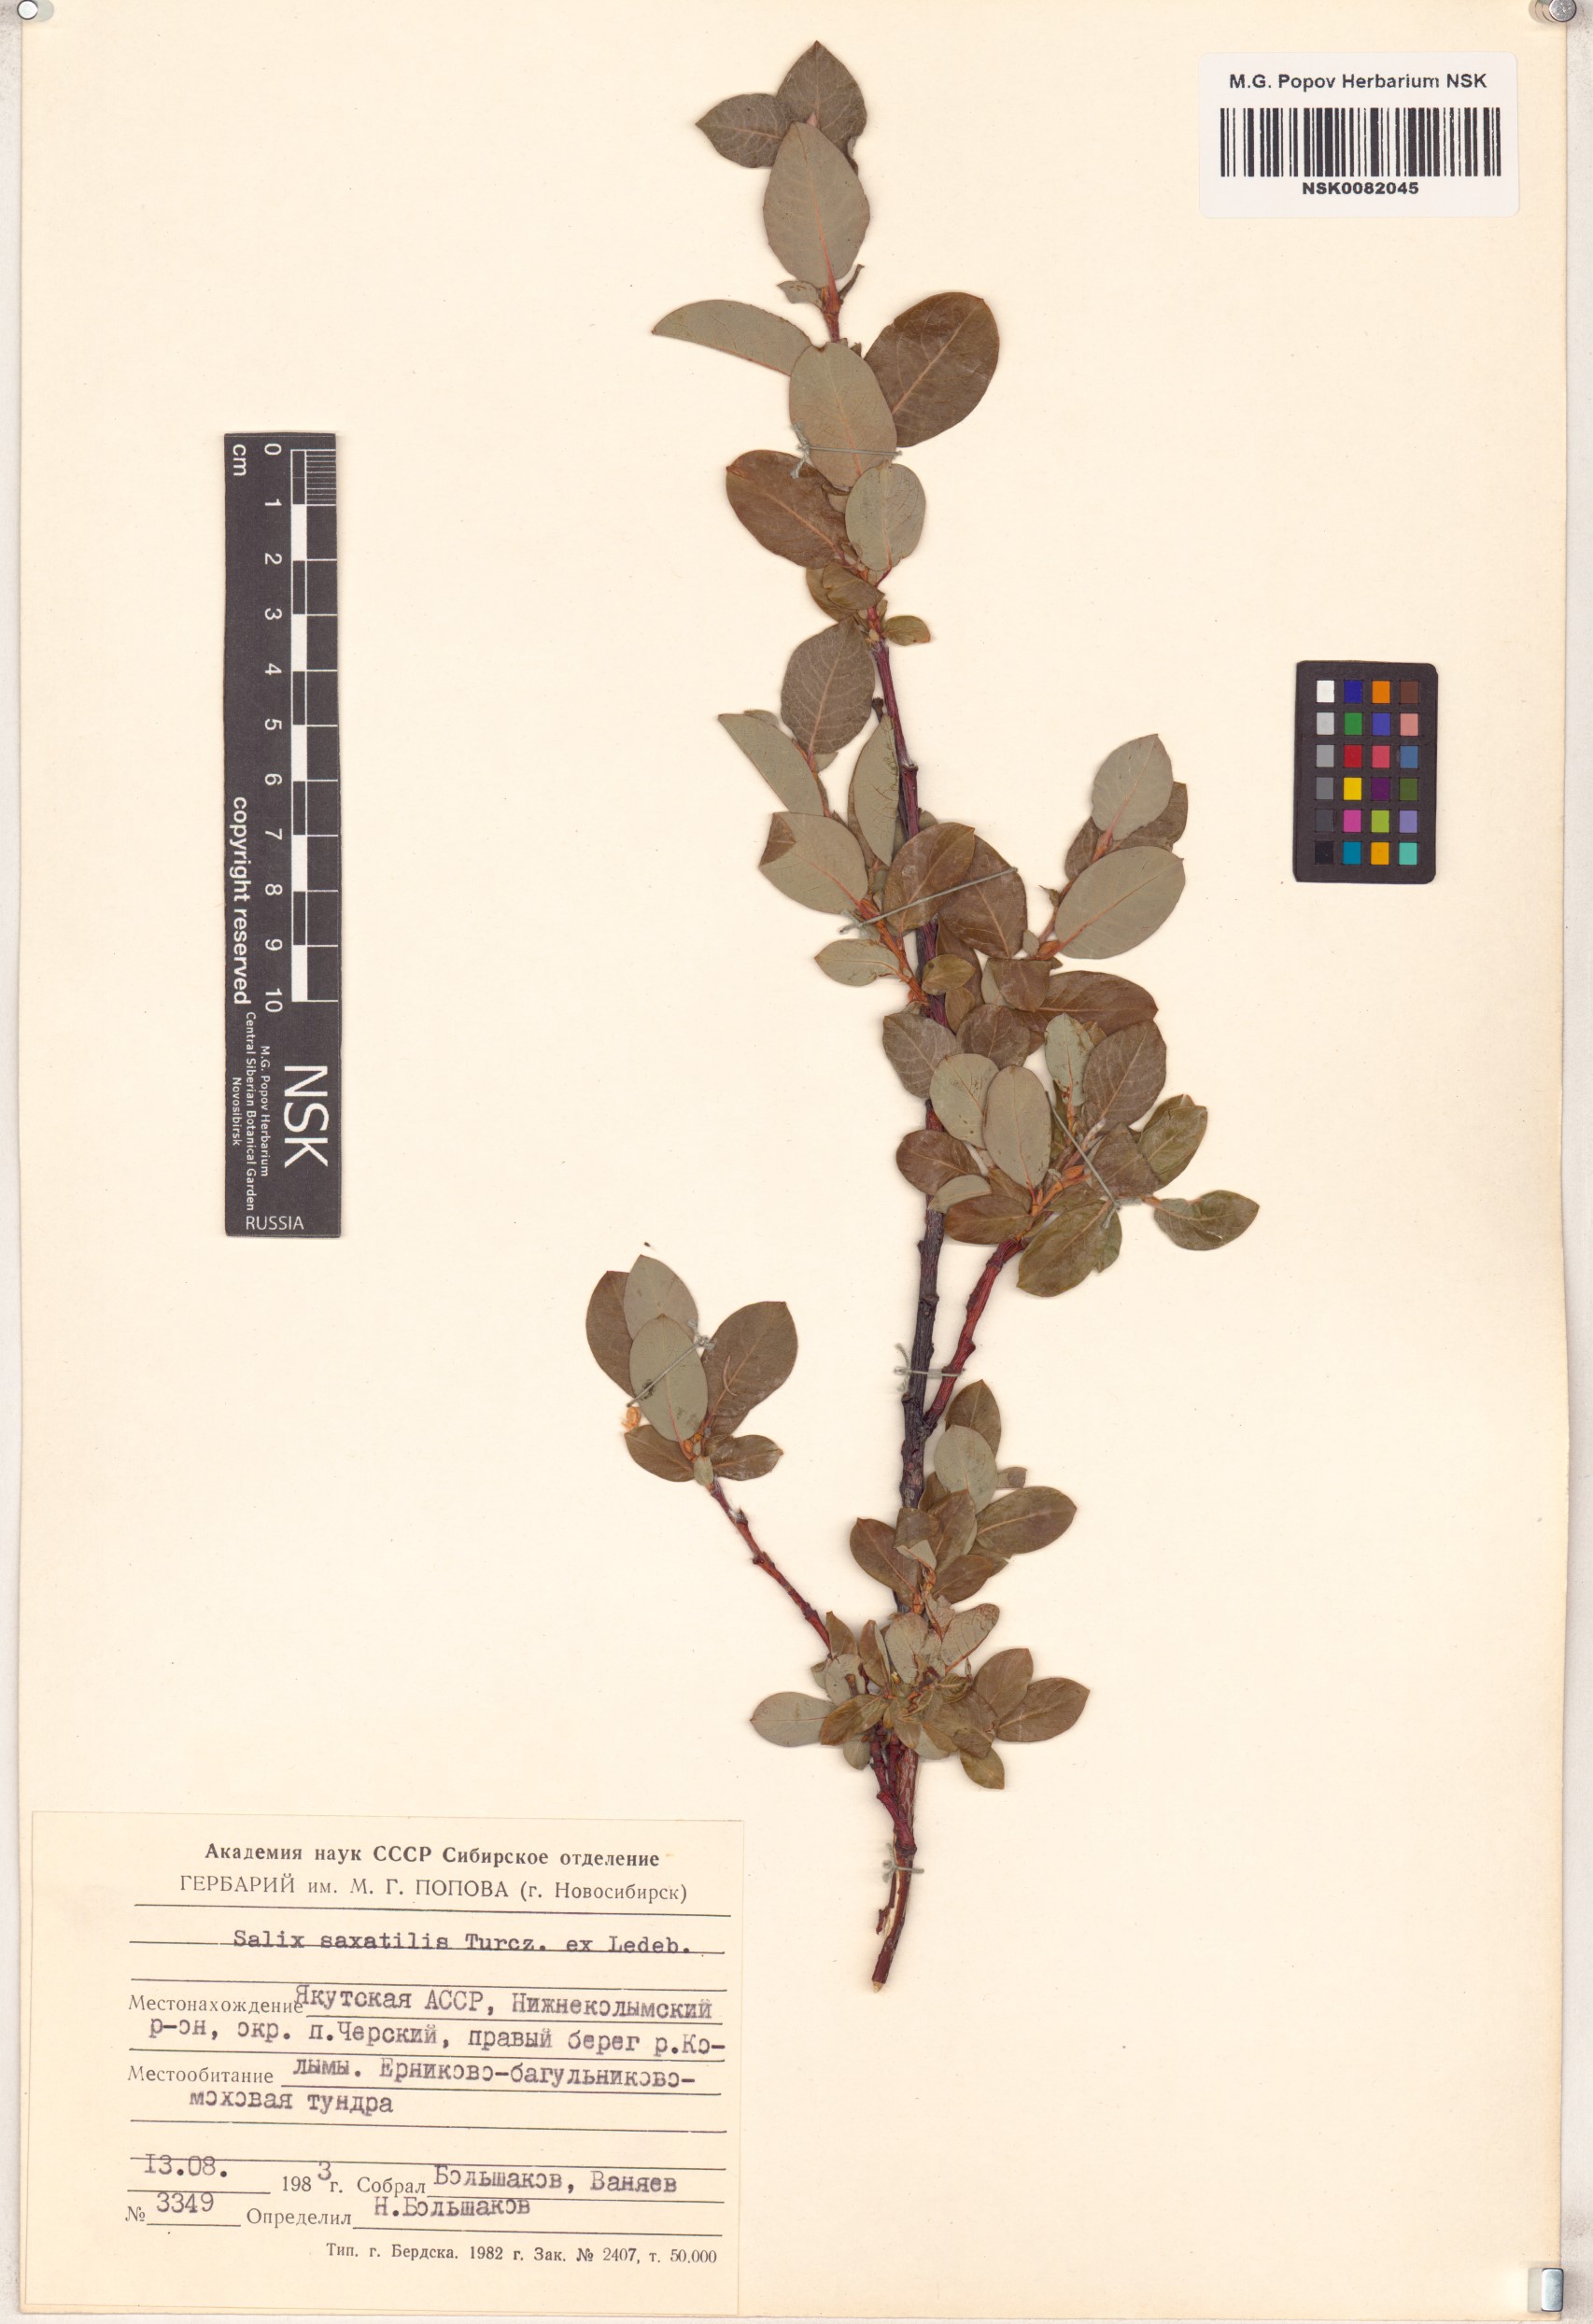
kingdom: Plantae
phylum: Tracheophyta
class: Magnoliopsida
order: Malpighiales
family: Salicaceae
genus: Salix
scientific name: Salix saxatilis
